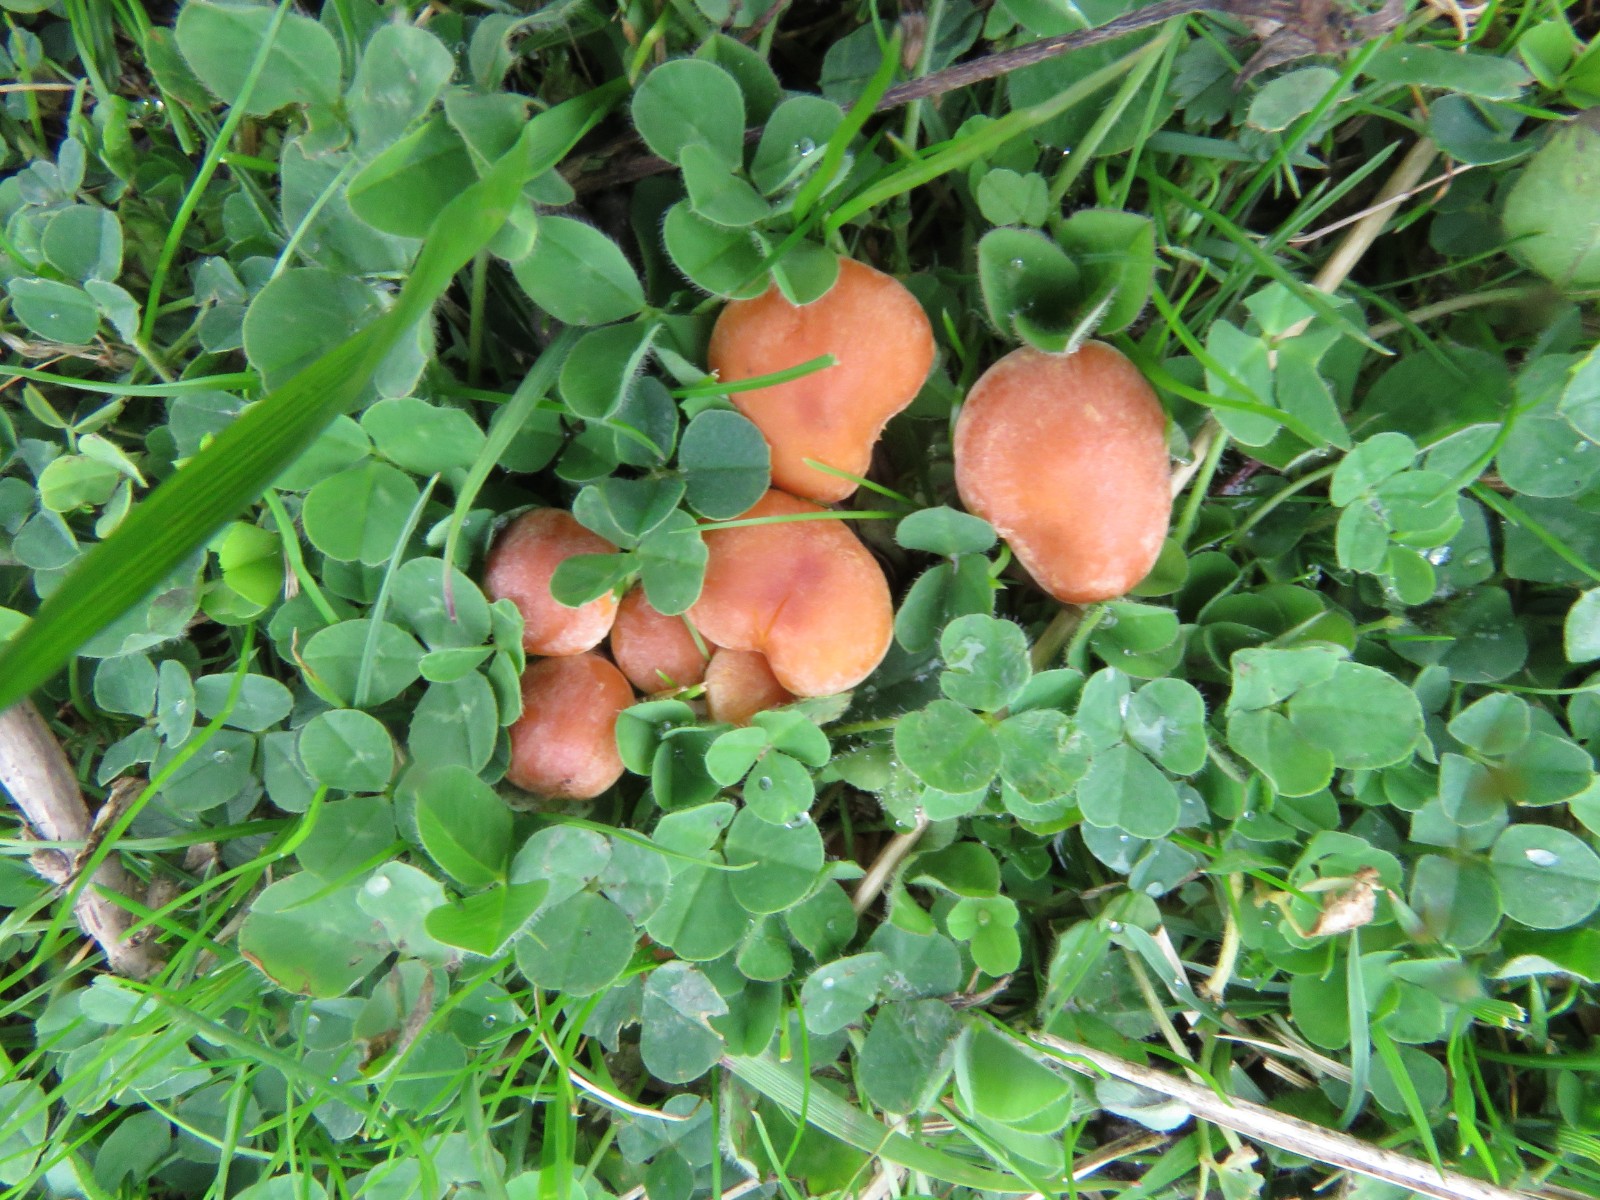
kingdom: Fungi
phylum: Basidiomycota
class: Agaricomycetes
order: Agaricales
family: Strophariaceae
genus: Hypholoma
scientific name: Hypholoma fasciculare
